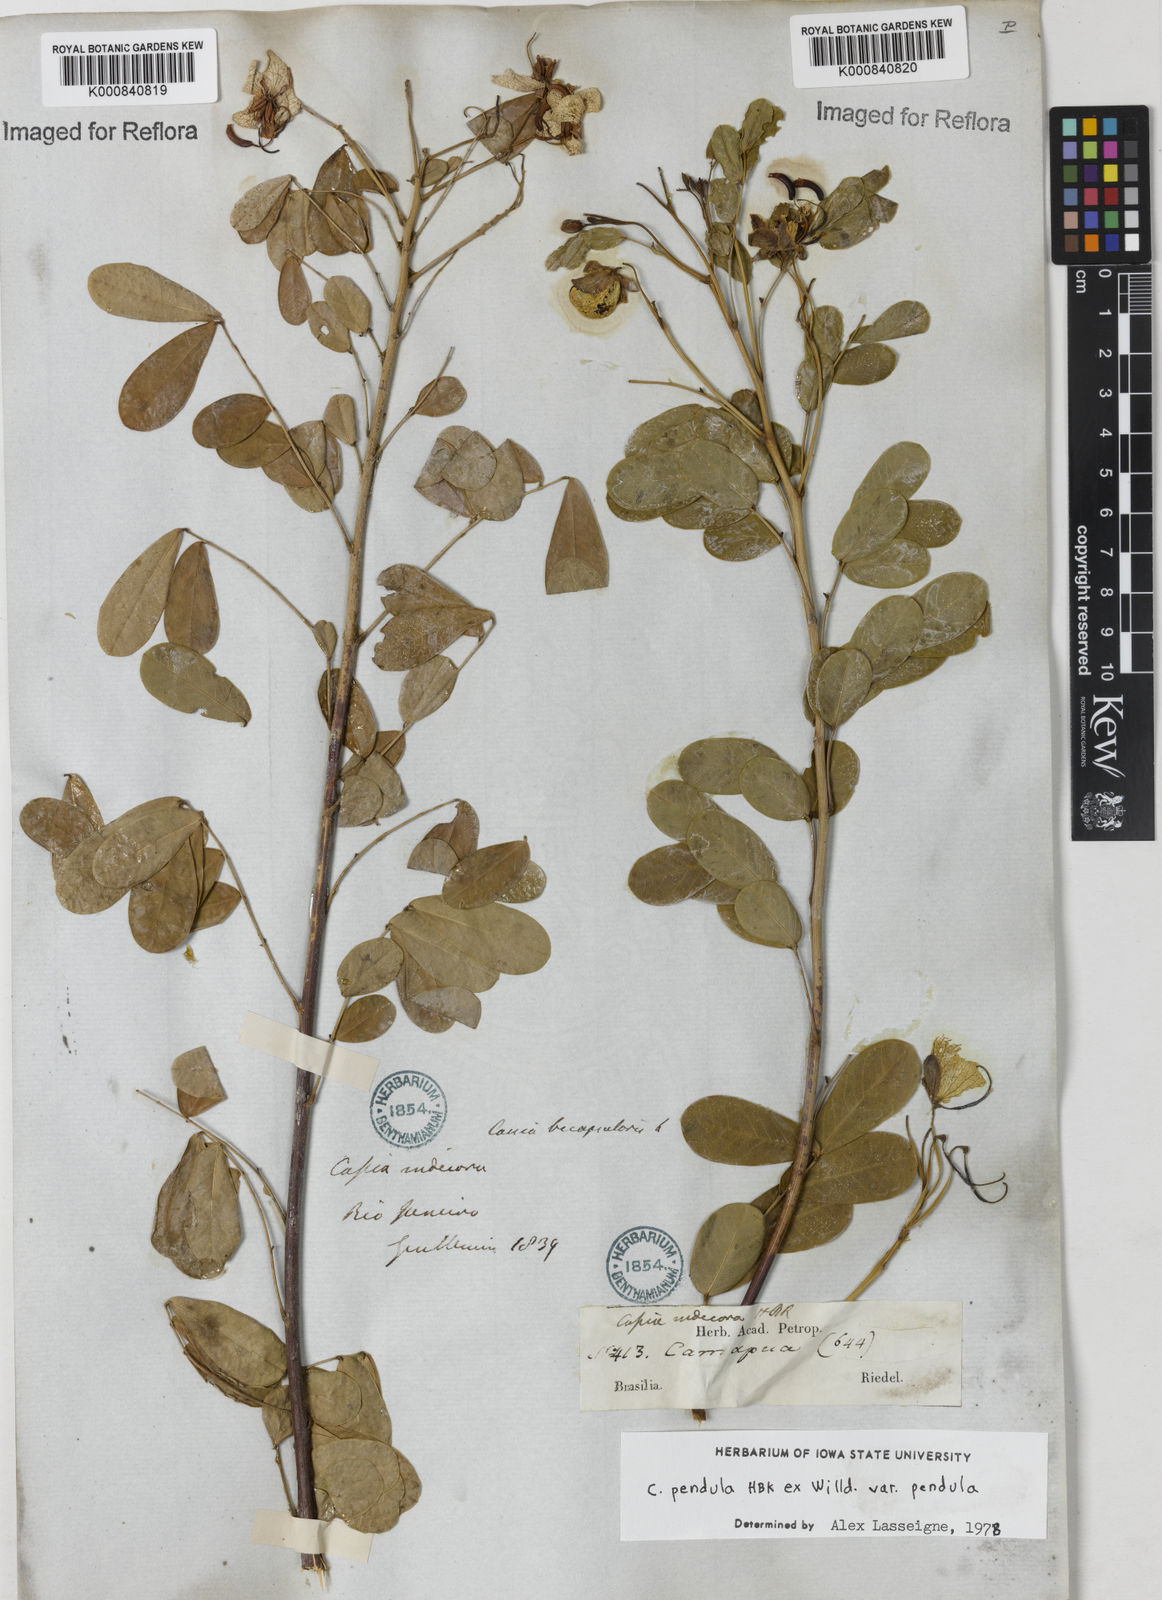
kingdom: Plantae
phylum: Tracheophyta
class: Magnoliopsida
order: Fabales
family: Fabaceae
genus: Senna
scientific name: Senna pendula
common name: Easter cassia
